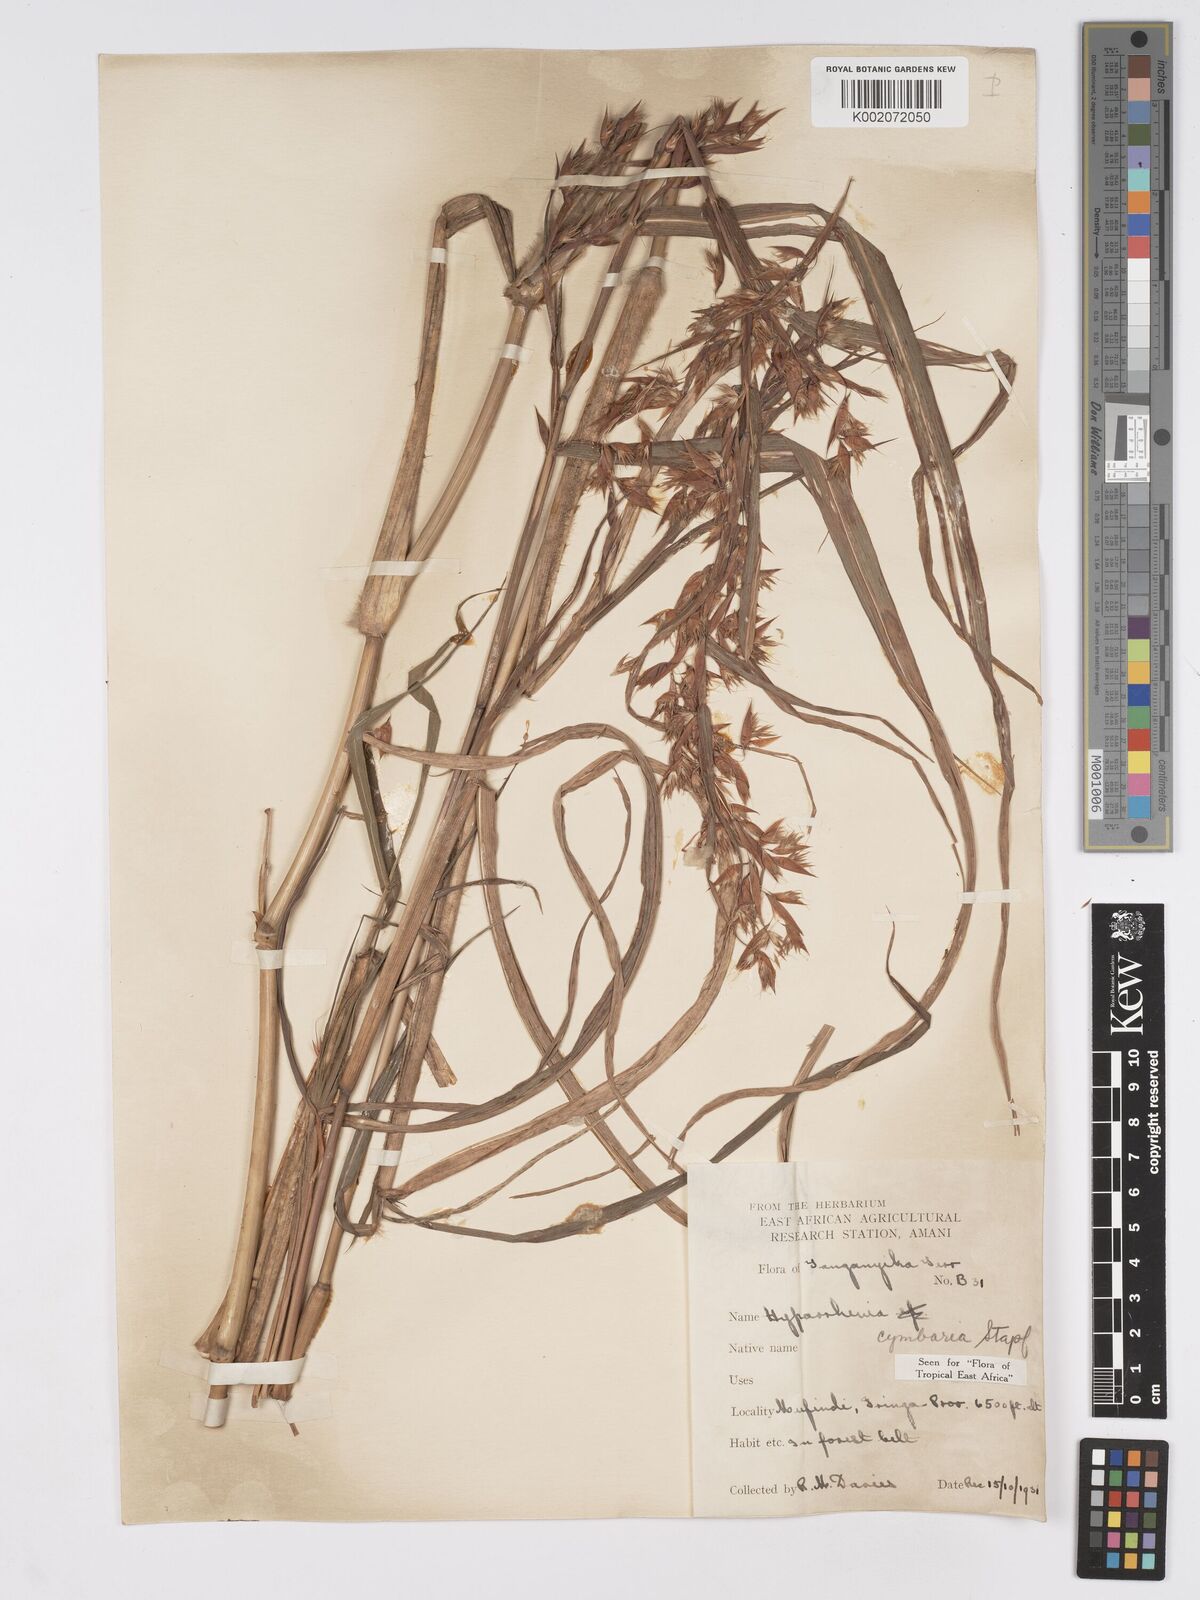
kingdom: Plantae
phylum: Tracheophyta
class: Liliopsida
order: Poales
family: Poaceae
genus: Hyparrhenia
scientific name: Hyparrhenia cymbaria
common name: Boat thatching grass
